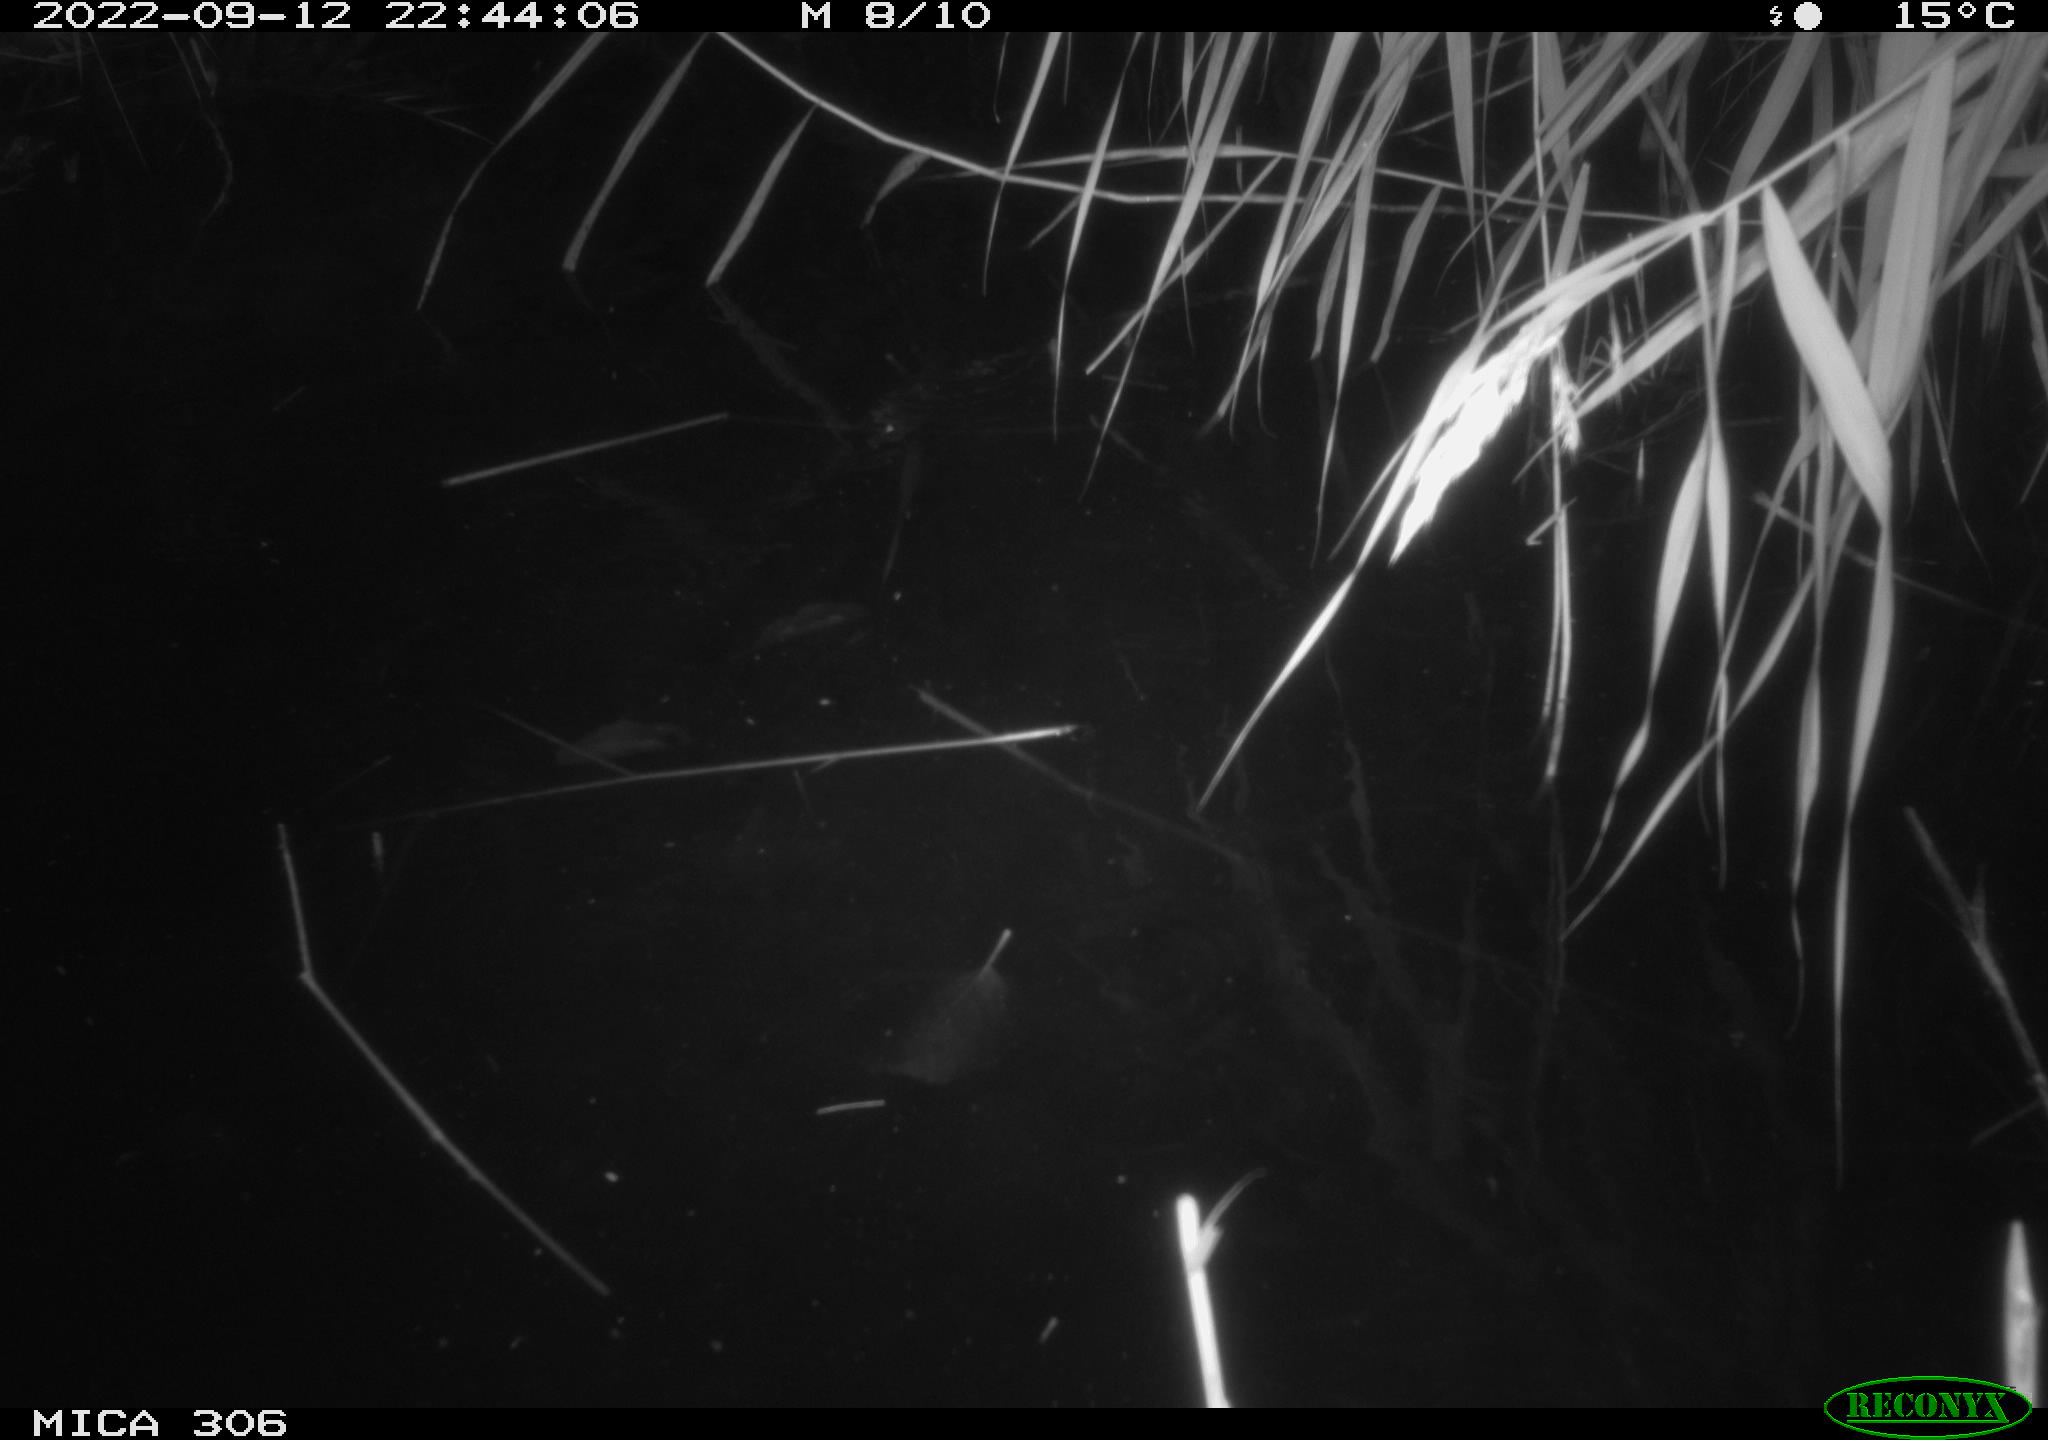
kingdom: Animalia
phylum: Chordata
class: Mammalia
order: Rodentia
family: Muridae
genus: Rattus
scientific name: Rattus norvegicus
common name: Brown rat
